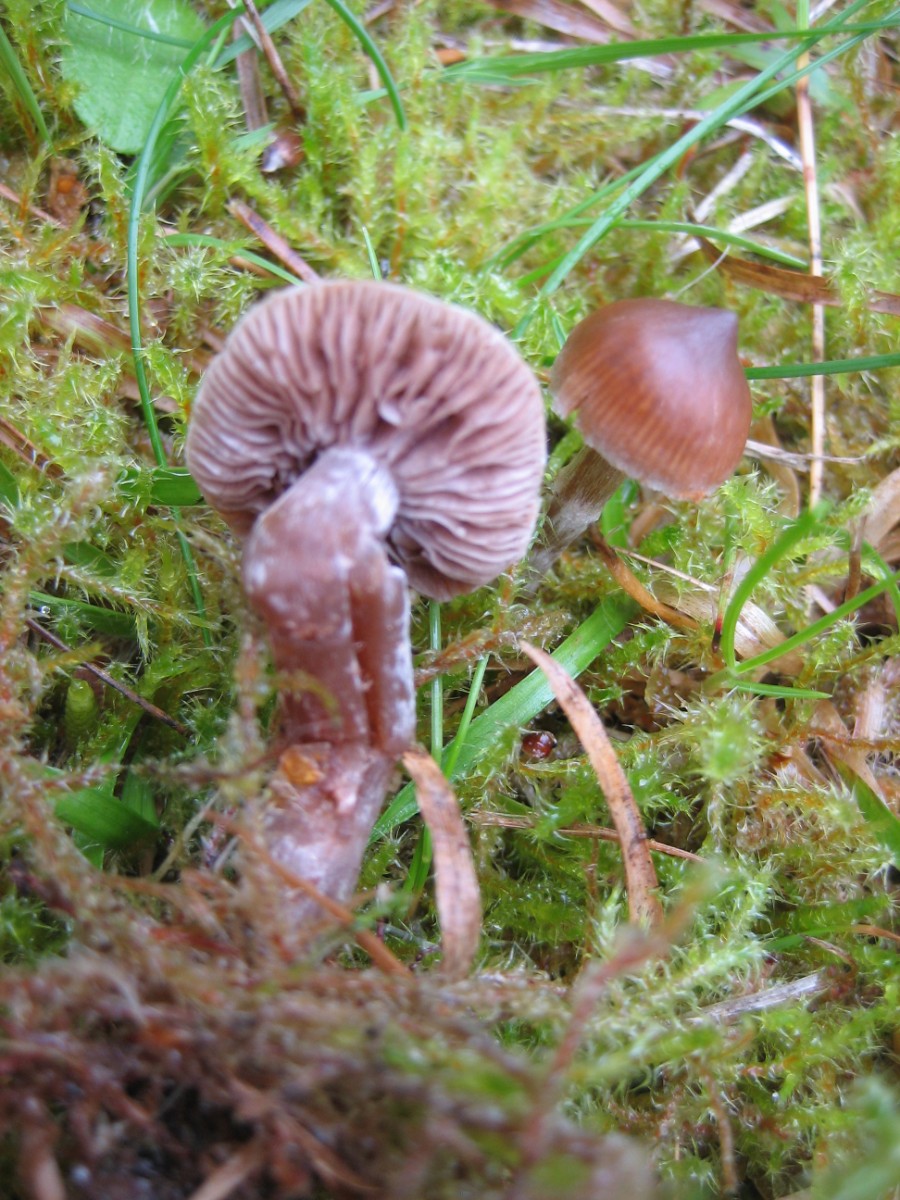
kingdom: Fungi
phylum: Basidiomycota
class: Agaricomycetes
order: Agaricales
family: Cortinariaceae
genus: Cortinarius
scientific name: Cortinarius
